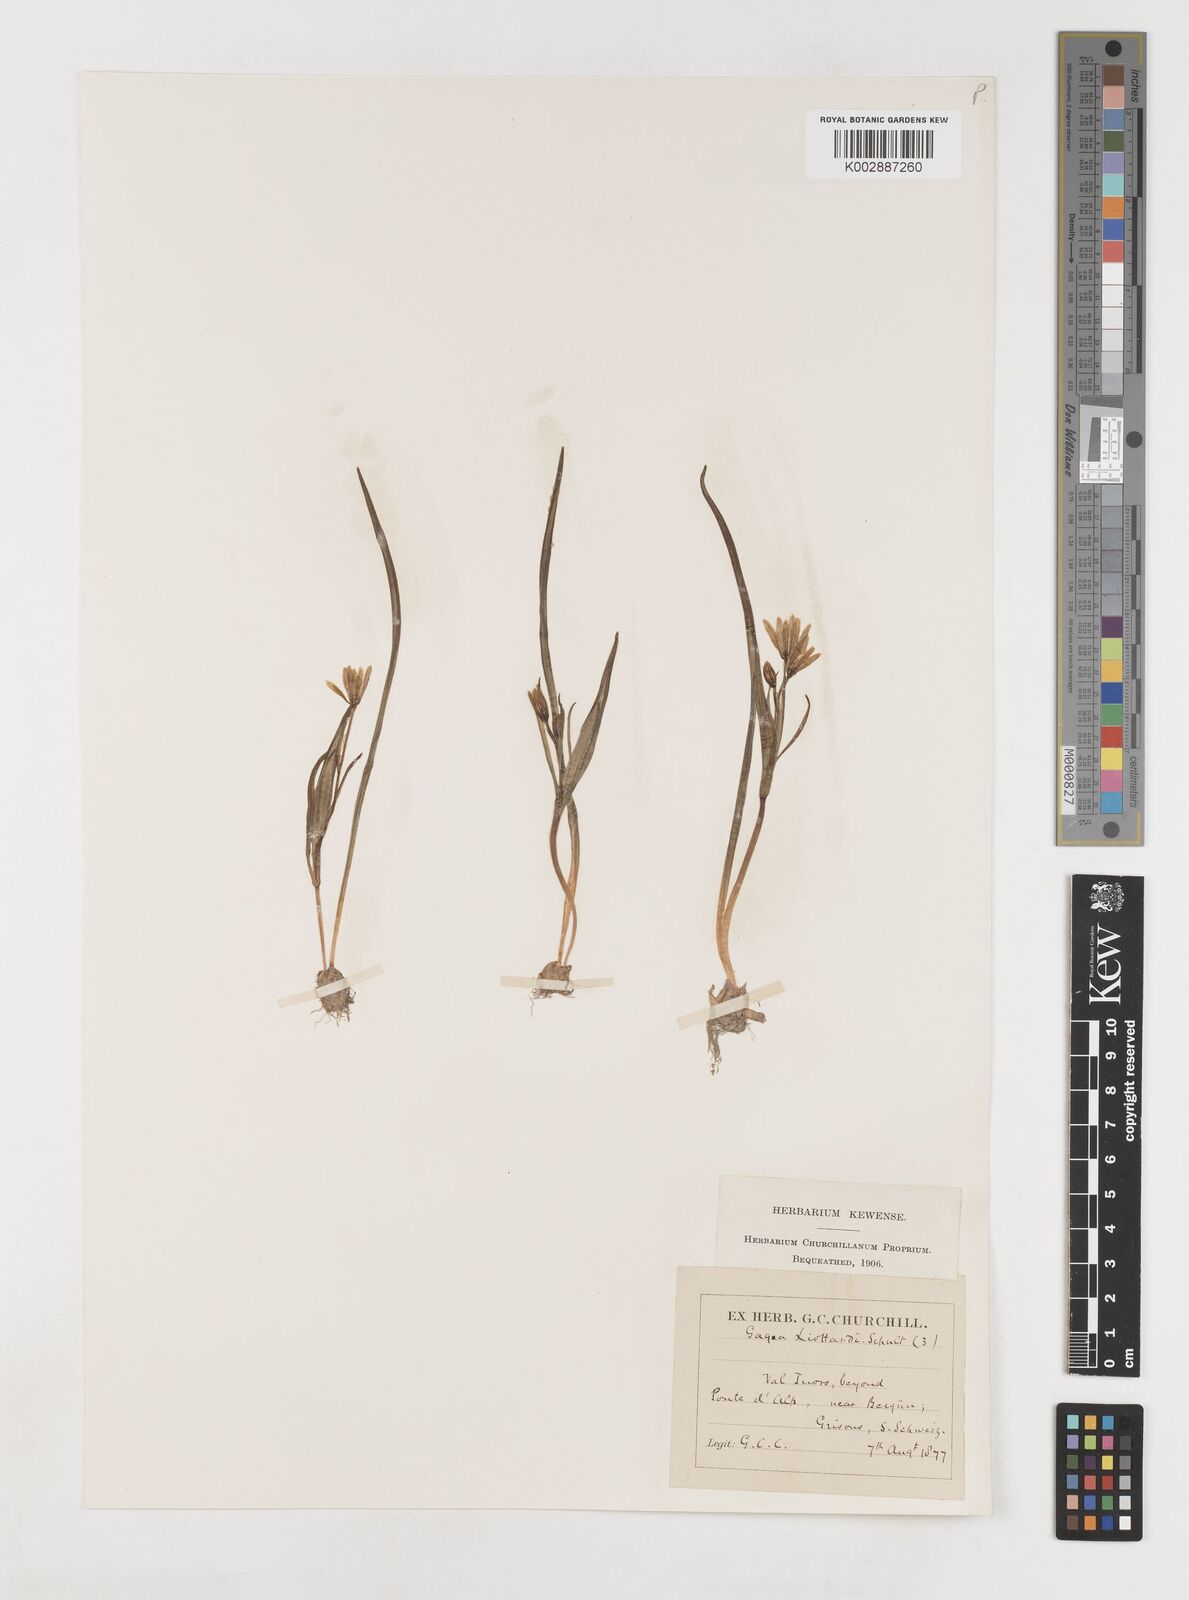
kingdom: Plantae
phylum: Tracheophyta
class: Liliopsida
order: Liliales
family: Liliaceae
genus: Gagea
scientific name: Gagea bohemica
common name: Early star-of-bethlehem
